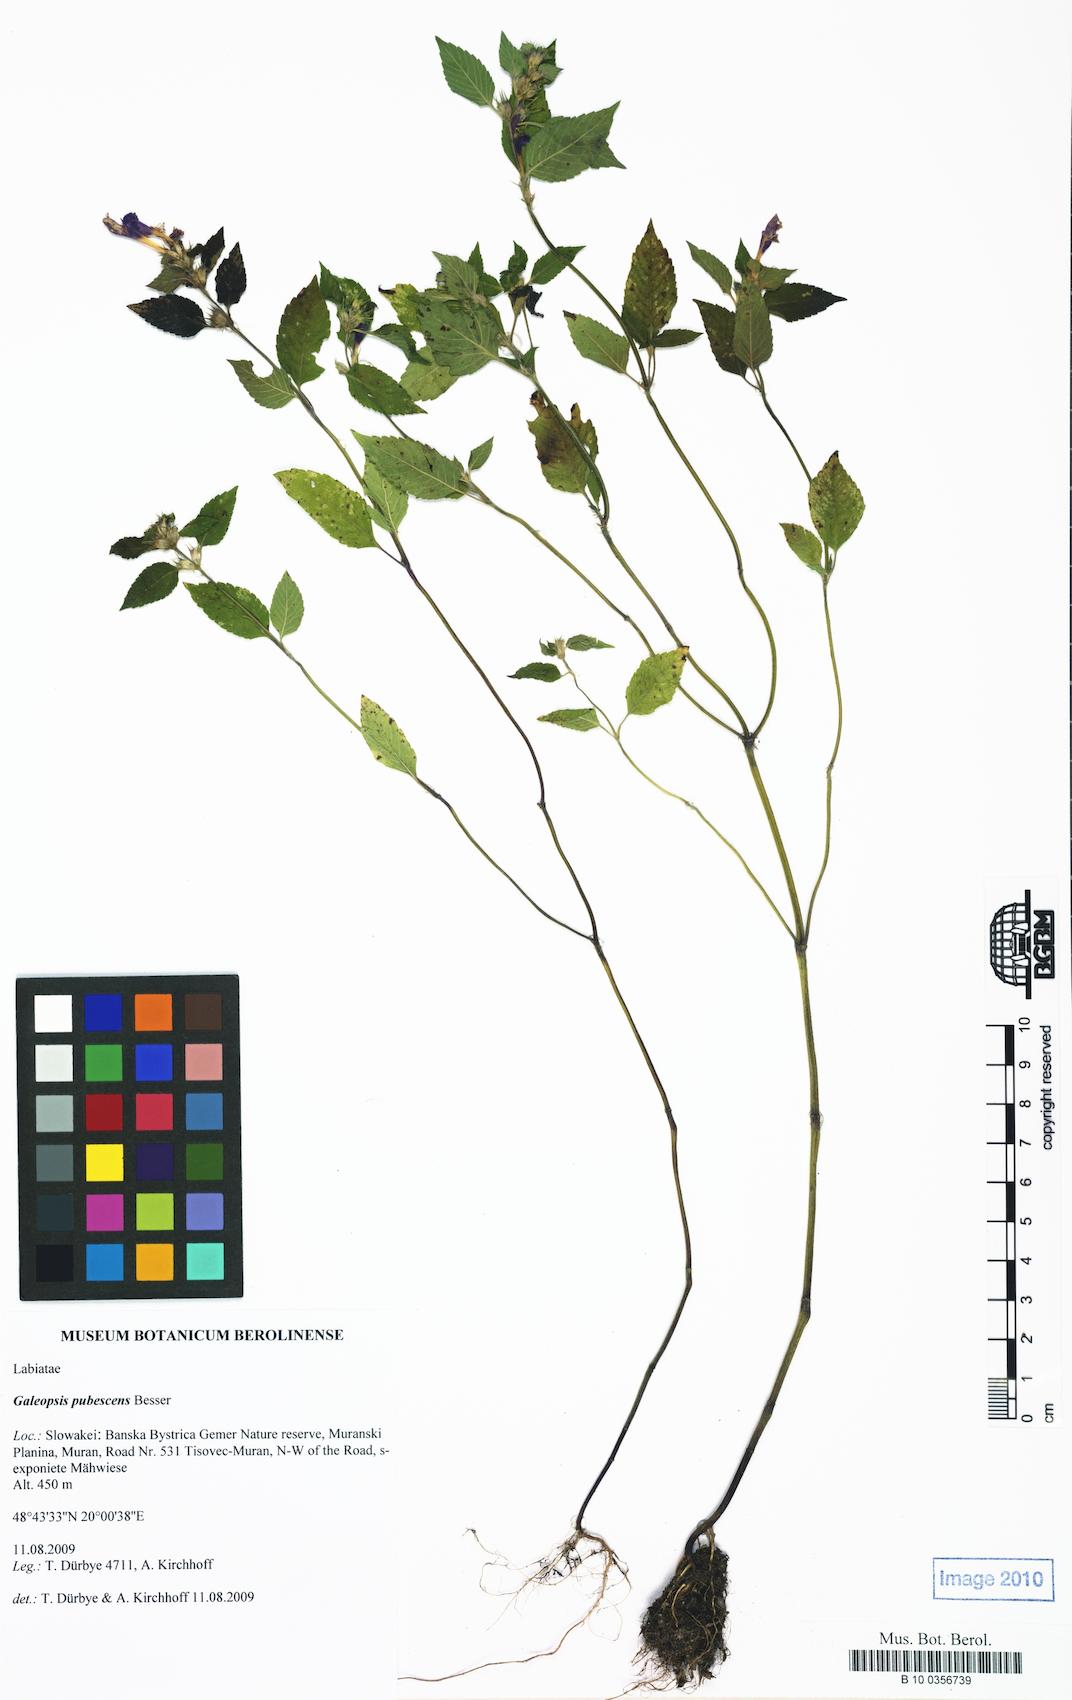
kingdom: Plantae
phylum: Tracheophyta
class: Magnoliopsida
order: Lamiales
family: Lamiaceae
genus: Galeopsis
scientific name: Galeopsis pubescens
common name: Downy hemp-nettle
